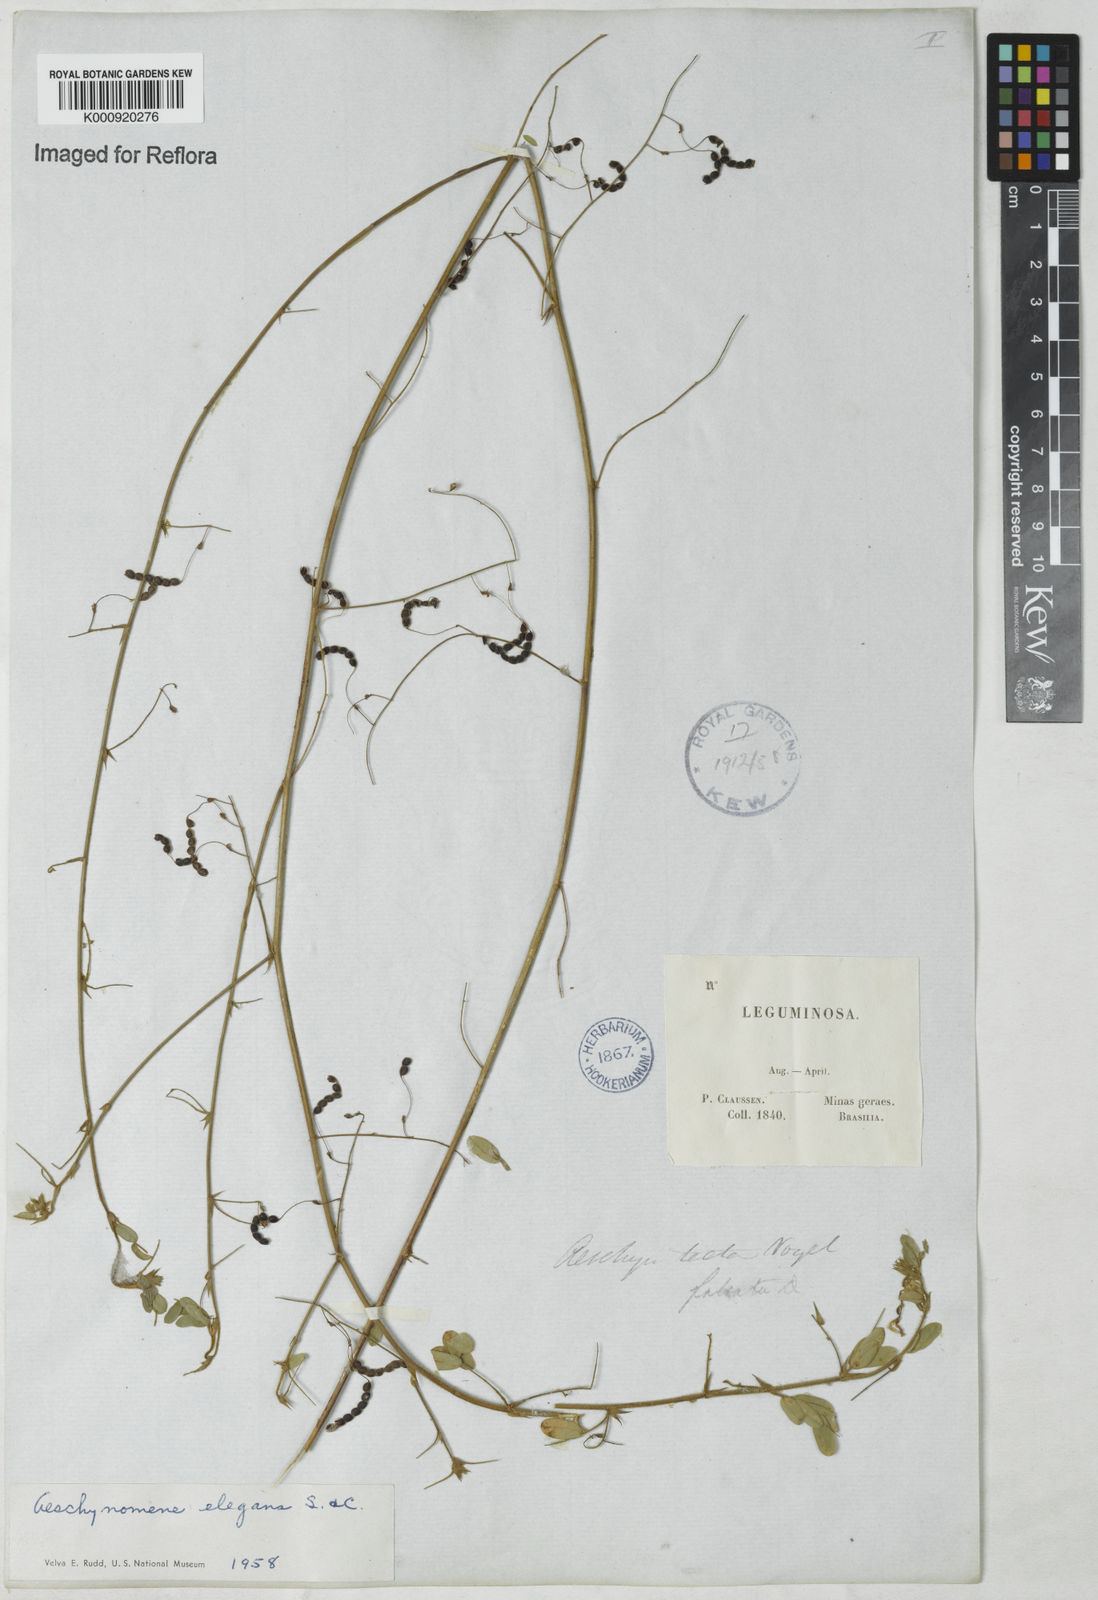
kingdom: Plantae
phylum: Tracheophyta
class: Magnoliopsida
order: Fabales
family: Fabaceae
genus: Ctenodon
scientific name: Ctenodon elegans
